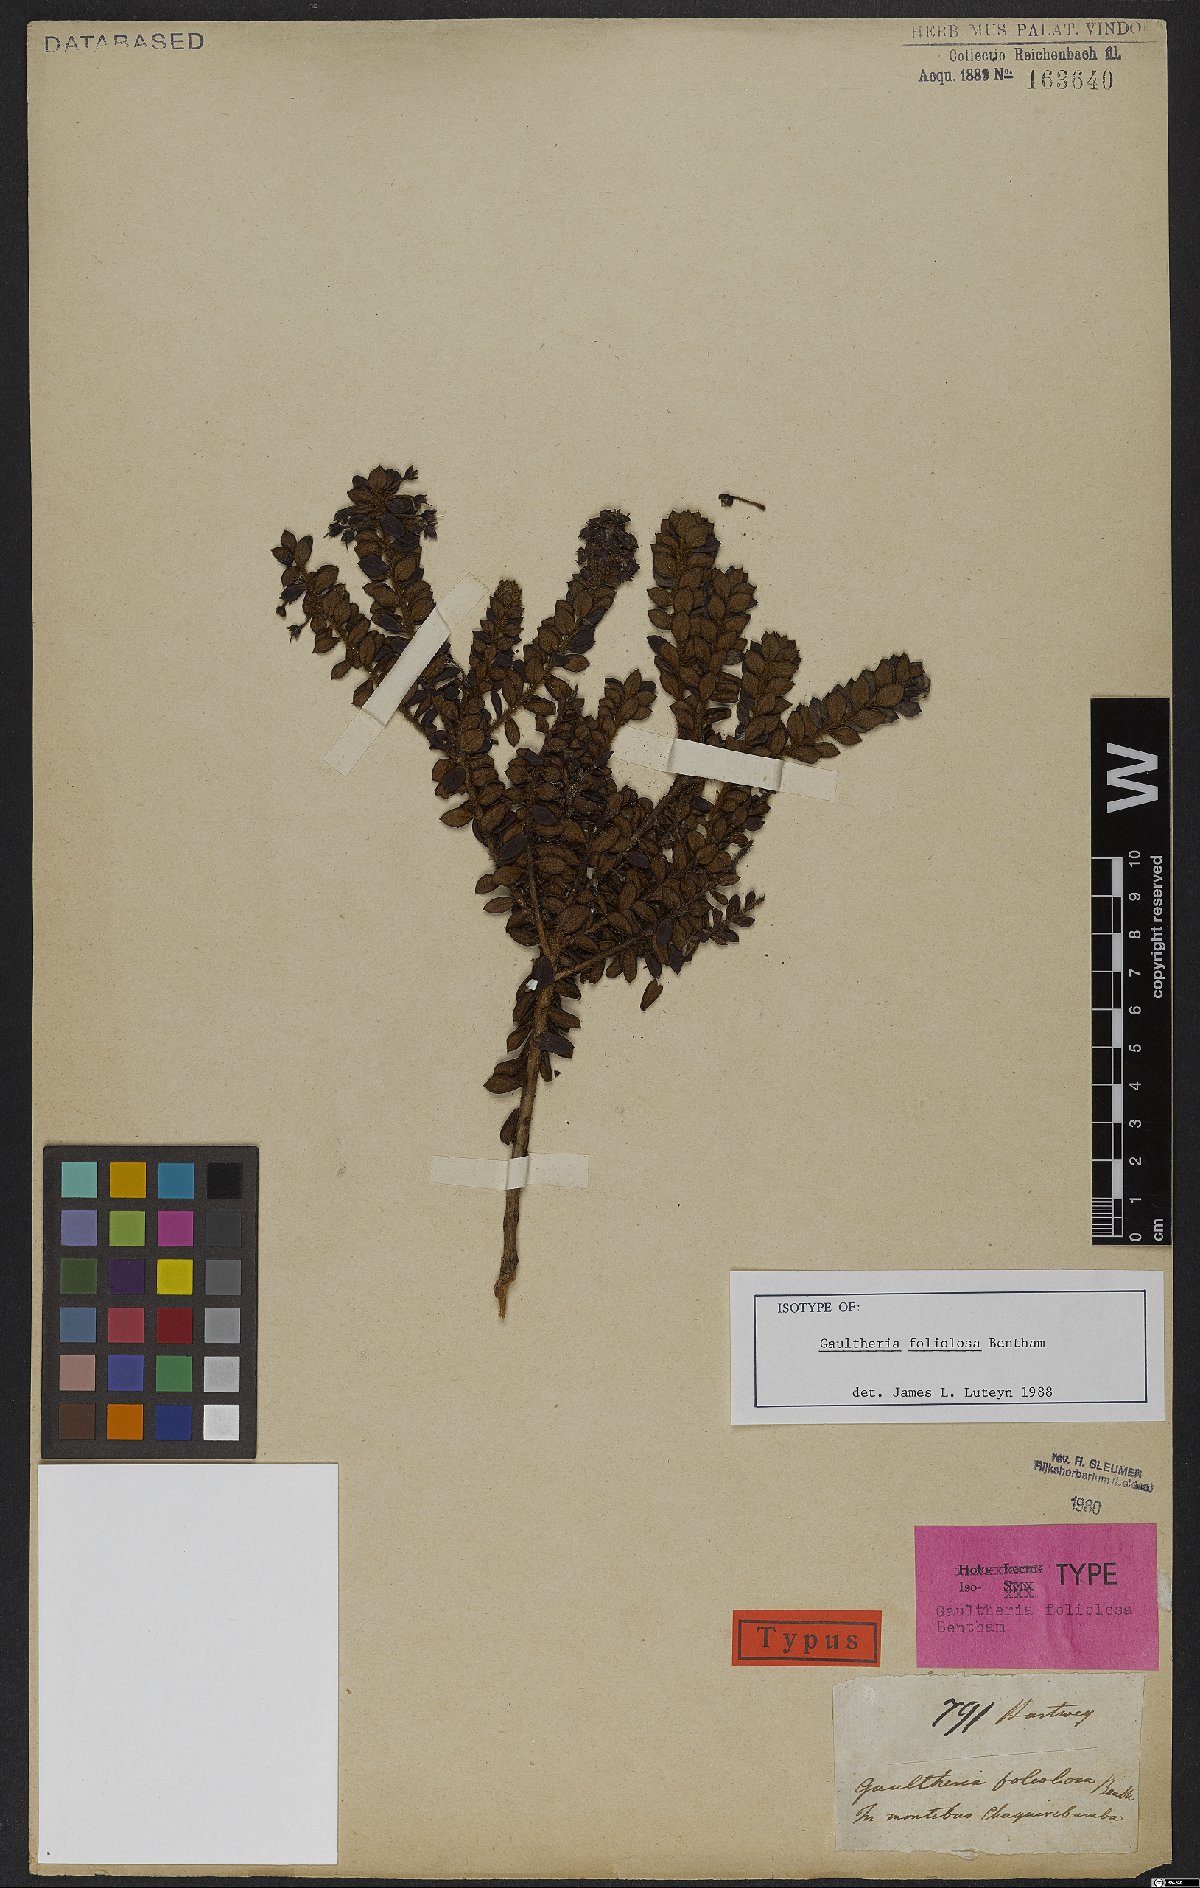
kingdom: Plantae
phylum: Tracheophyta
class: Magnoliopsida
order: Ericales
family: Ericaceae
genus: Gaultheria
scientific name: Gaultheria foliolosa
